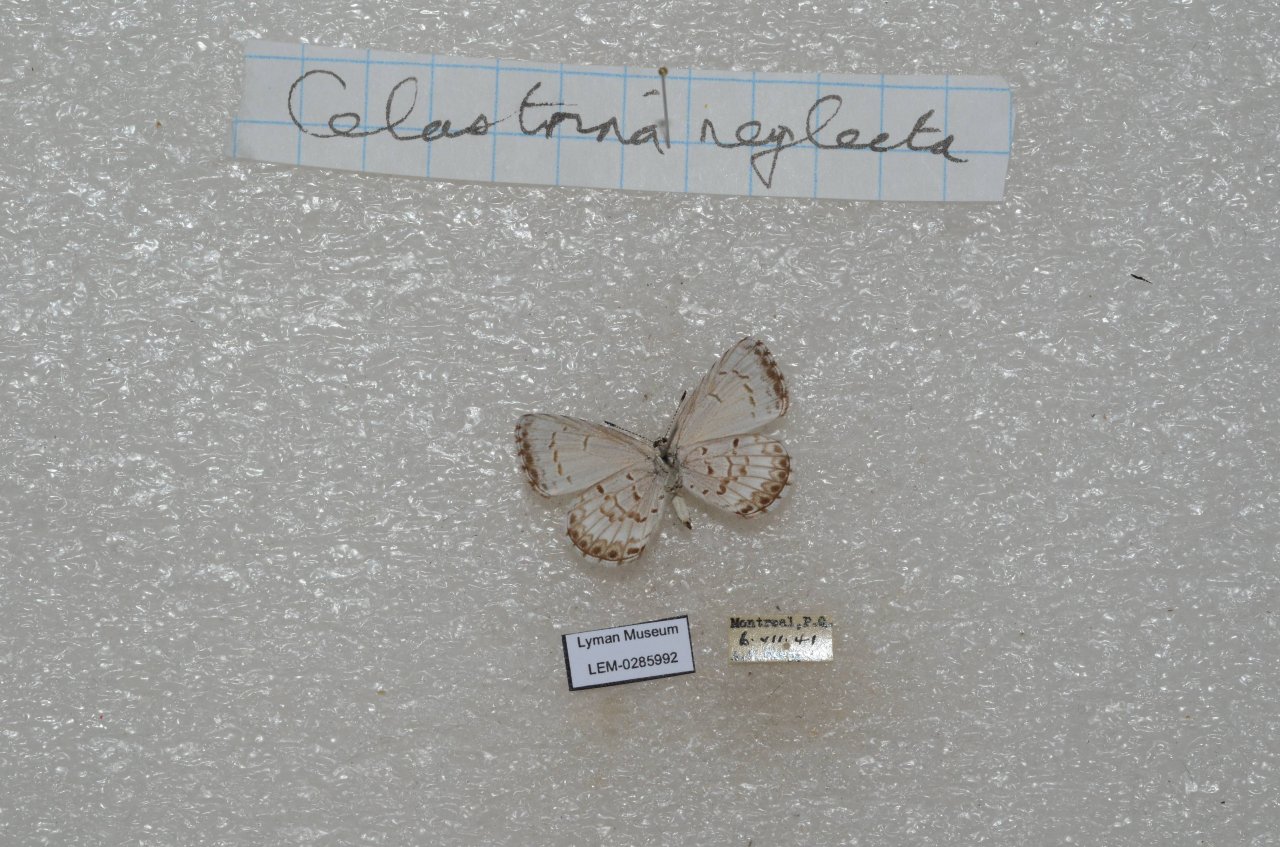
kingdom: Animalia
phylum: Arthropoda
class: Insecta
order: Lepidoptera
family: Lycaenidae
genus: Celastrina
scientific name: Celastrina lucia
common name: Northern Spring Azure
